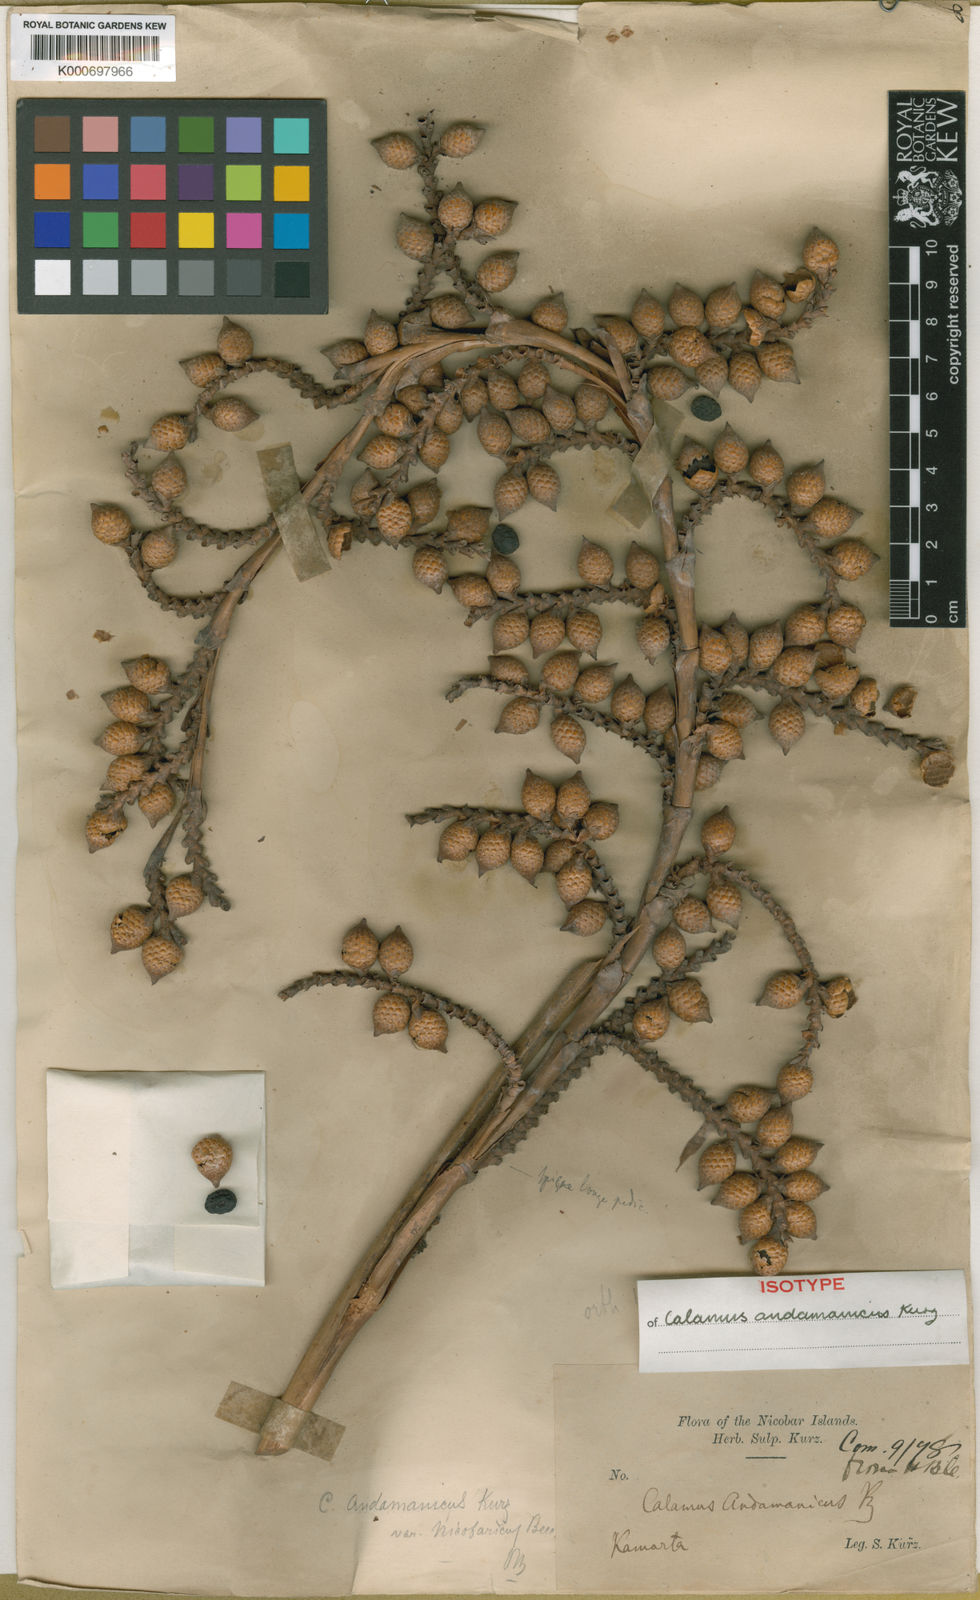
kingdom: Plantae
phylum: Tracheophyta
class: Liliopsida
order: Arecales
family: Arecaceae
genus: Calamus
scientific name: Calamus andamanicus
